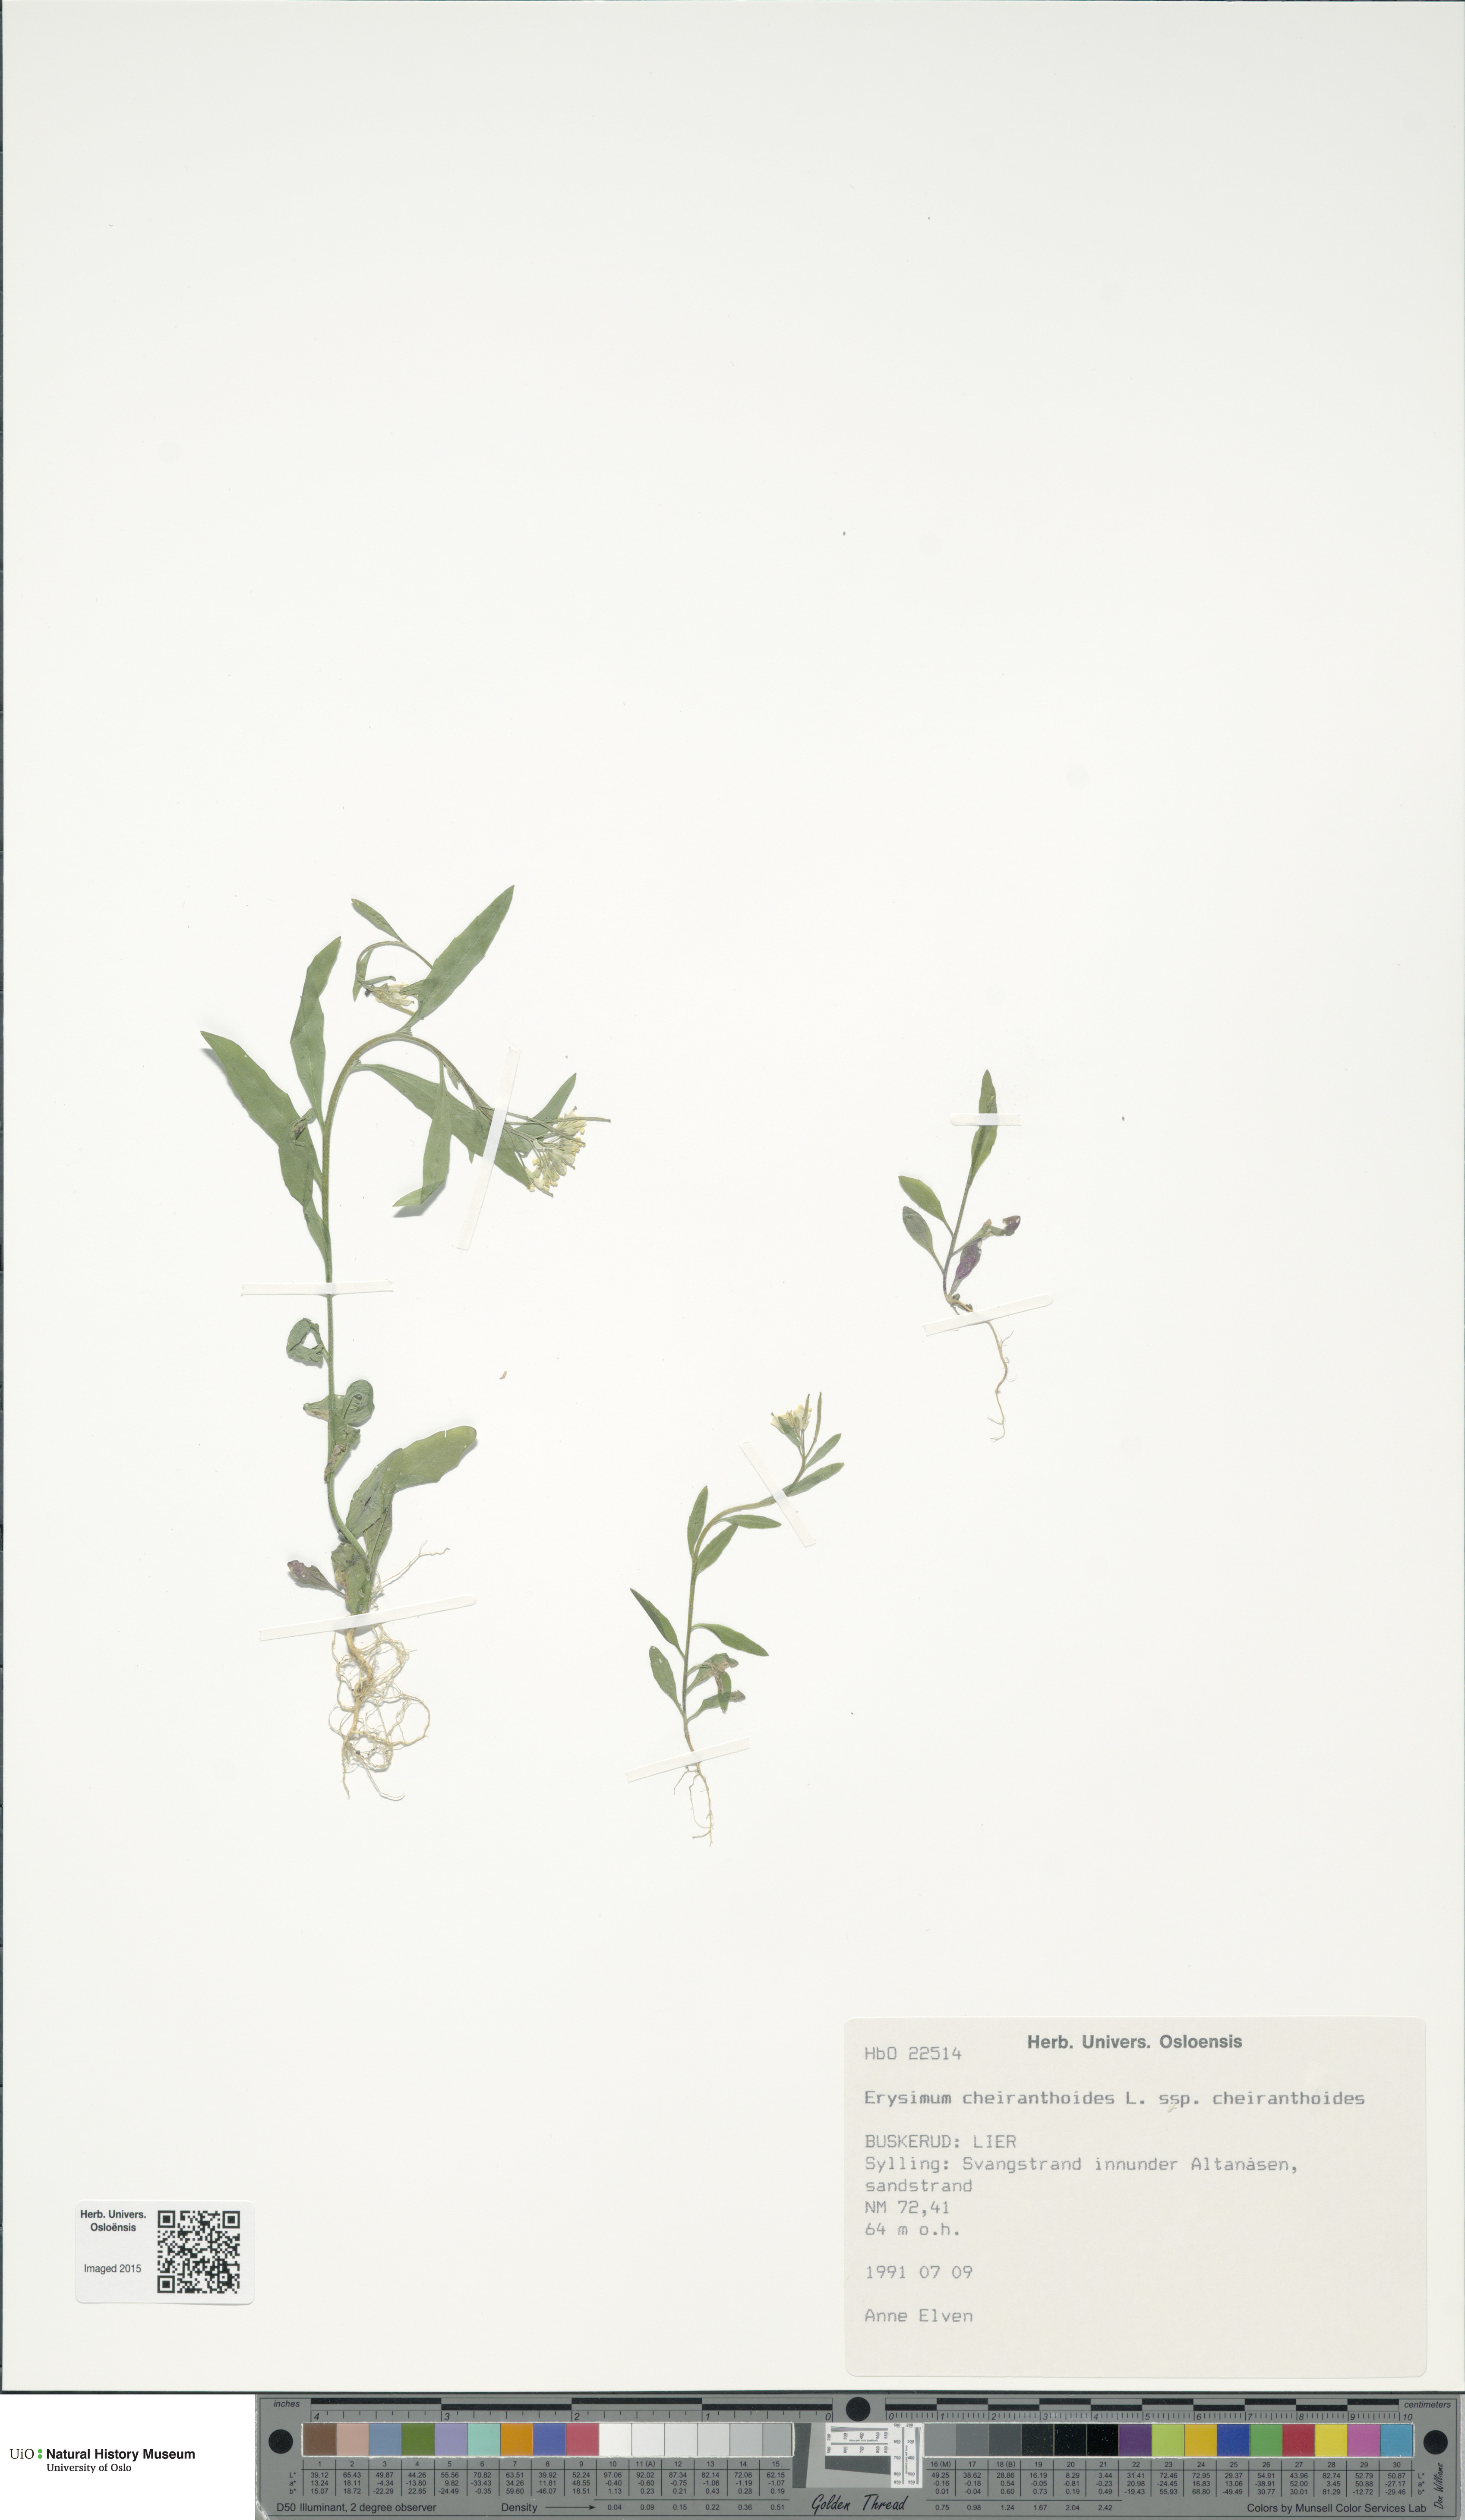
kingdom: Plantae
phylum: Tracheophyta
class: Magnoliopsida
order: Brassicales
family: Brassicaceae
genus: Erysimum
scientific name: Erysimum cheiranthoides
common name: Treacle mustard
